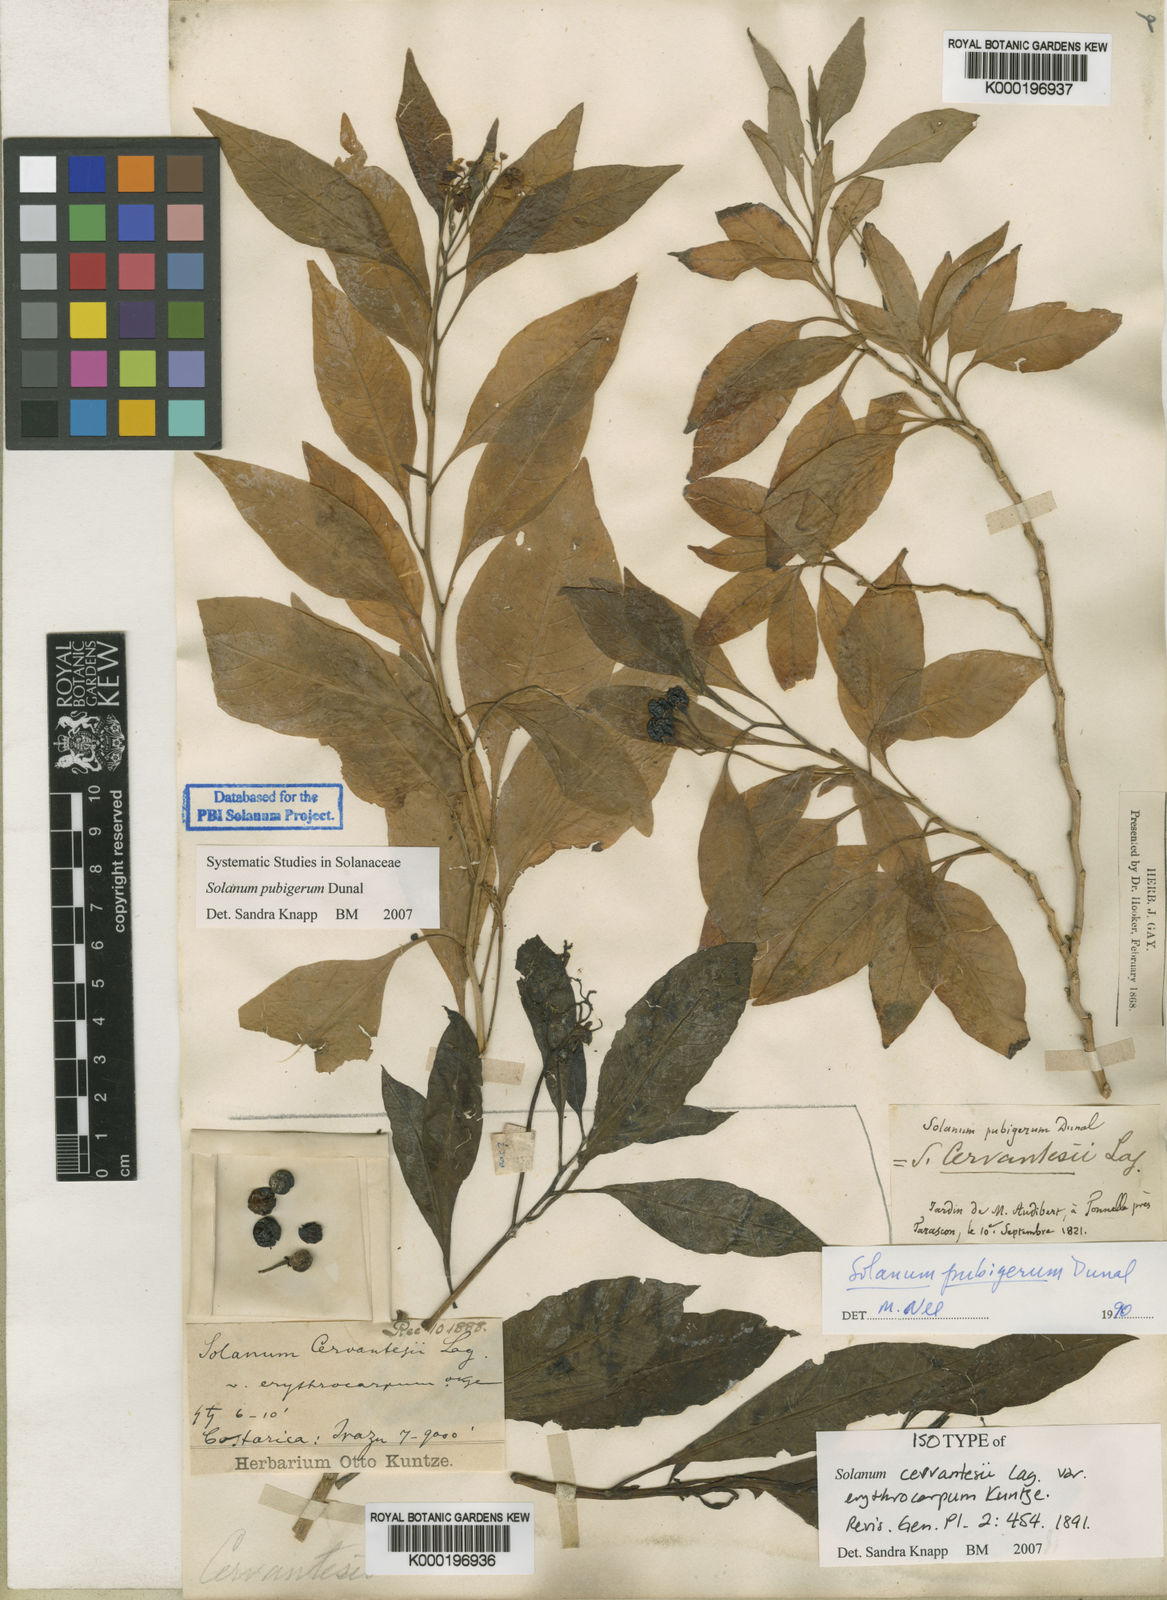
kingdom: Plantae
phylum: Tracheophyta
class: Magnoliopsida
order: Solanales
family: Solanaceae
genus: Solanum
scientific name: Solanum pubigerum
